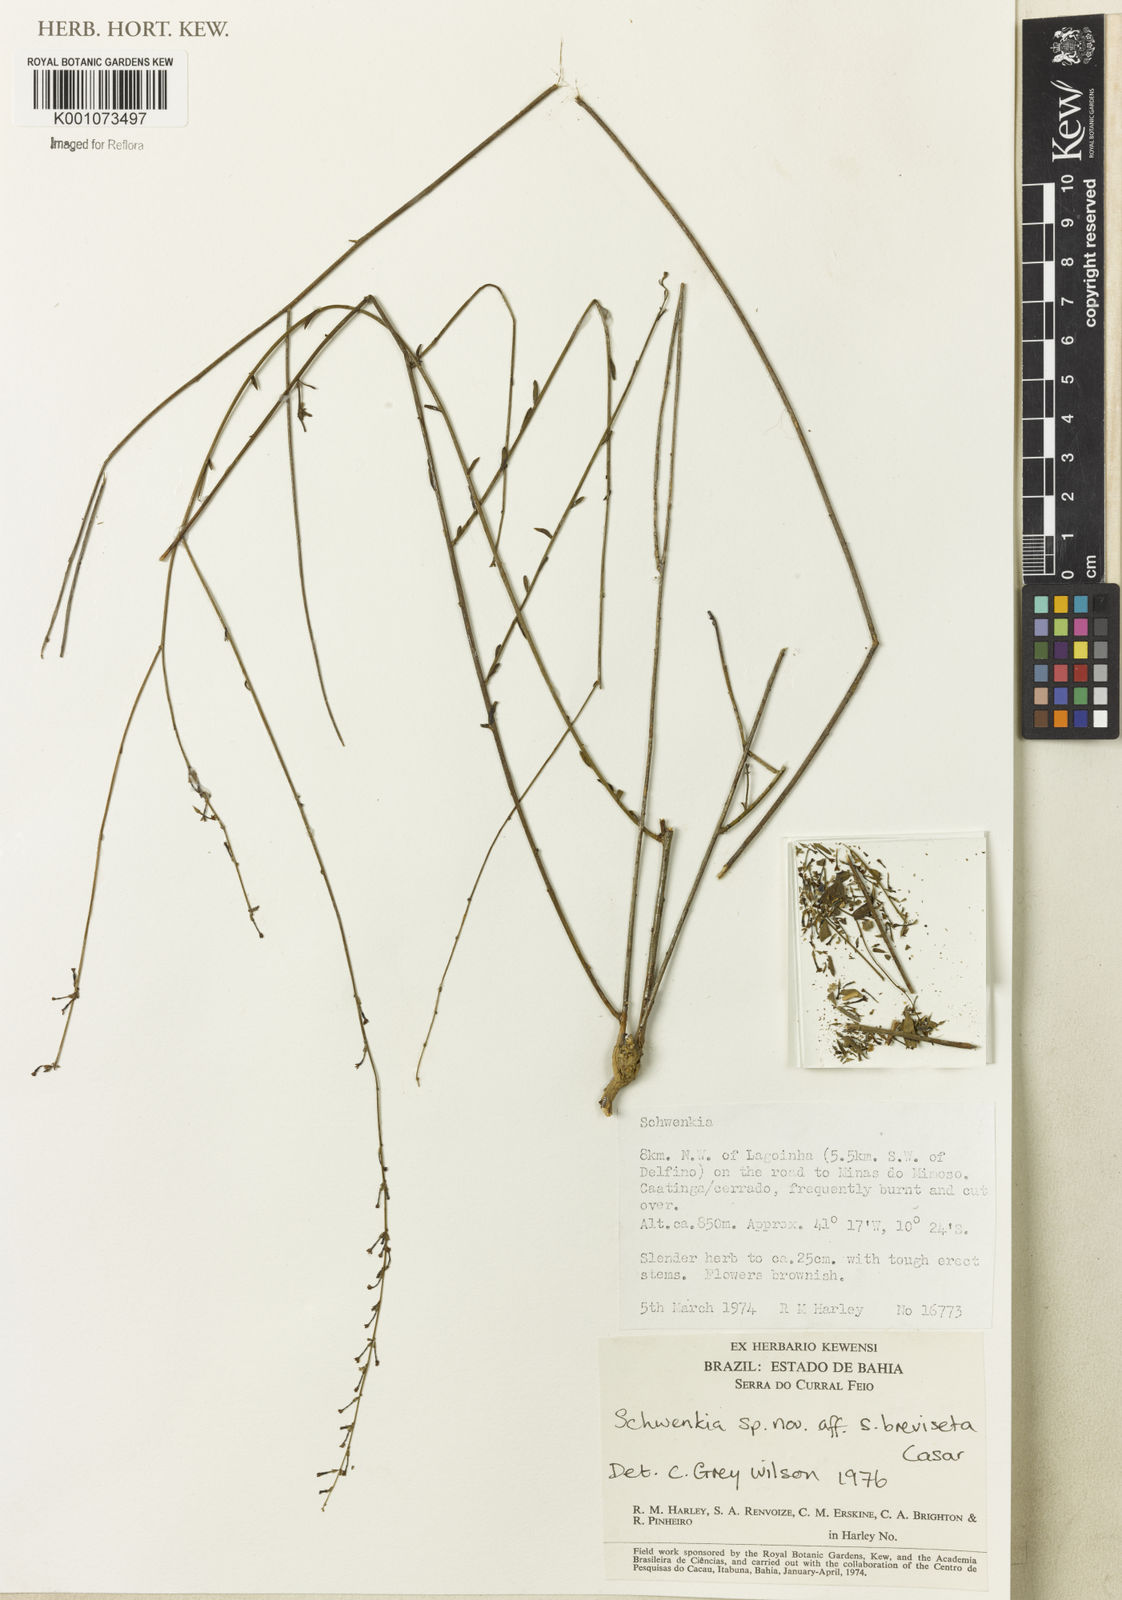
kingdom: Plantae
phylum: Tracheophyta
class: Magnoliopsida
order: Solanales
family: Solanaceae
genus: Schwenckia
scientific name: Schwenckia breviseta
